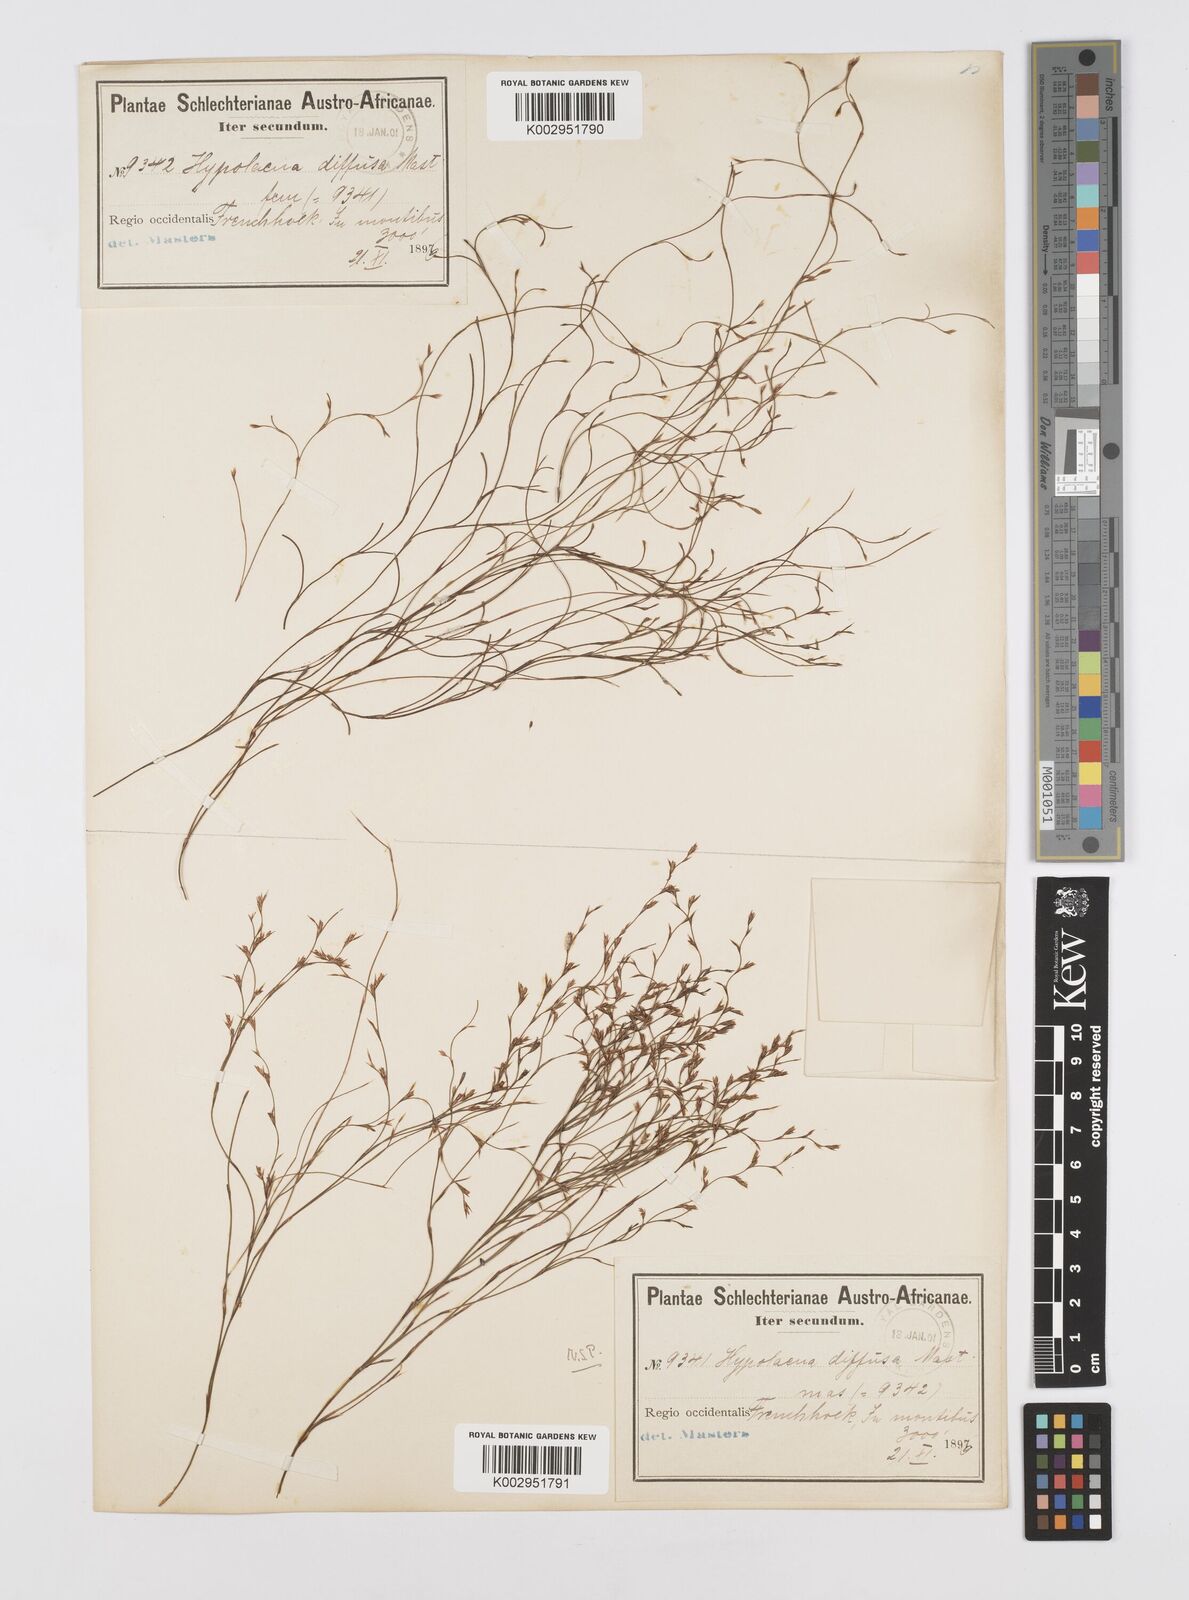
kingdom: Plantae
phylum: Tracheophyta
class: Liliopsida
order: Poales
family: Restionaceae
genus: Restio
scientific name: Restio versatilis
